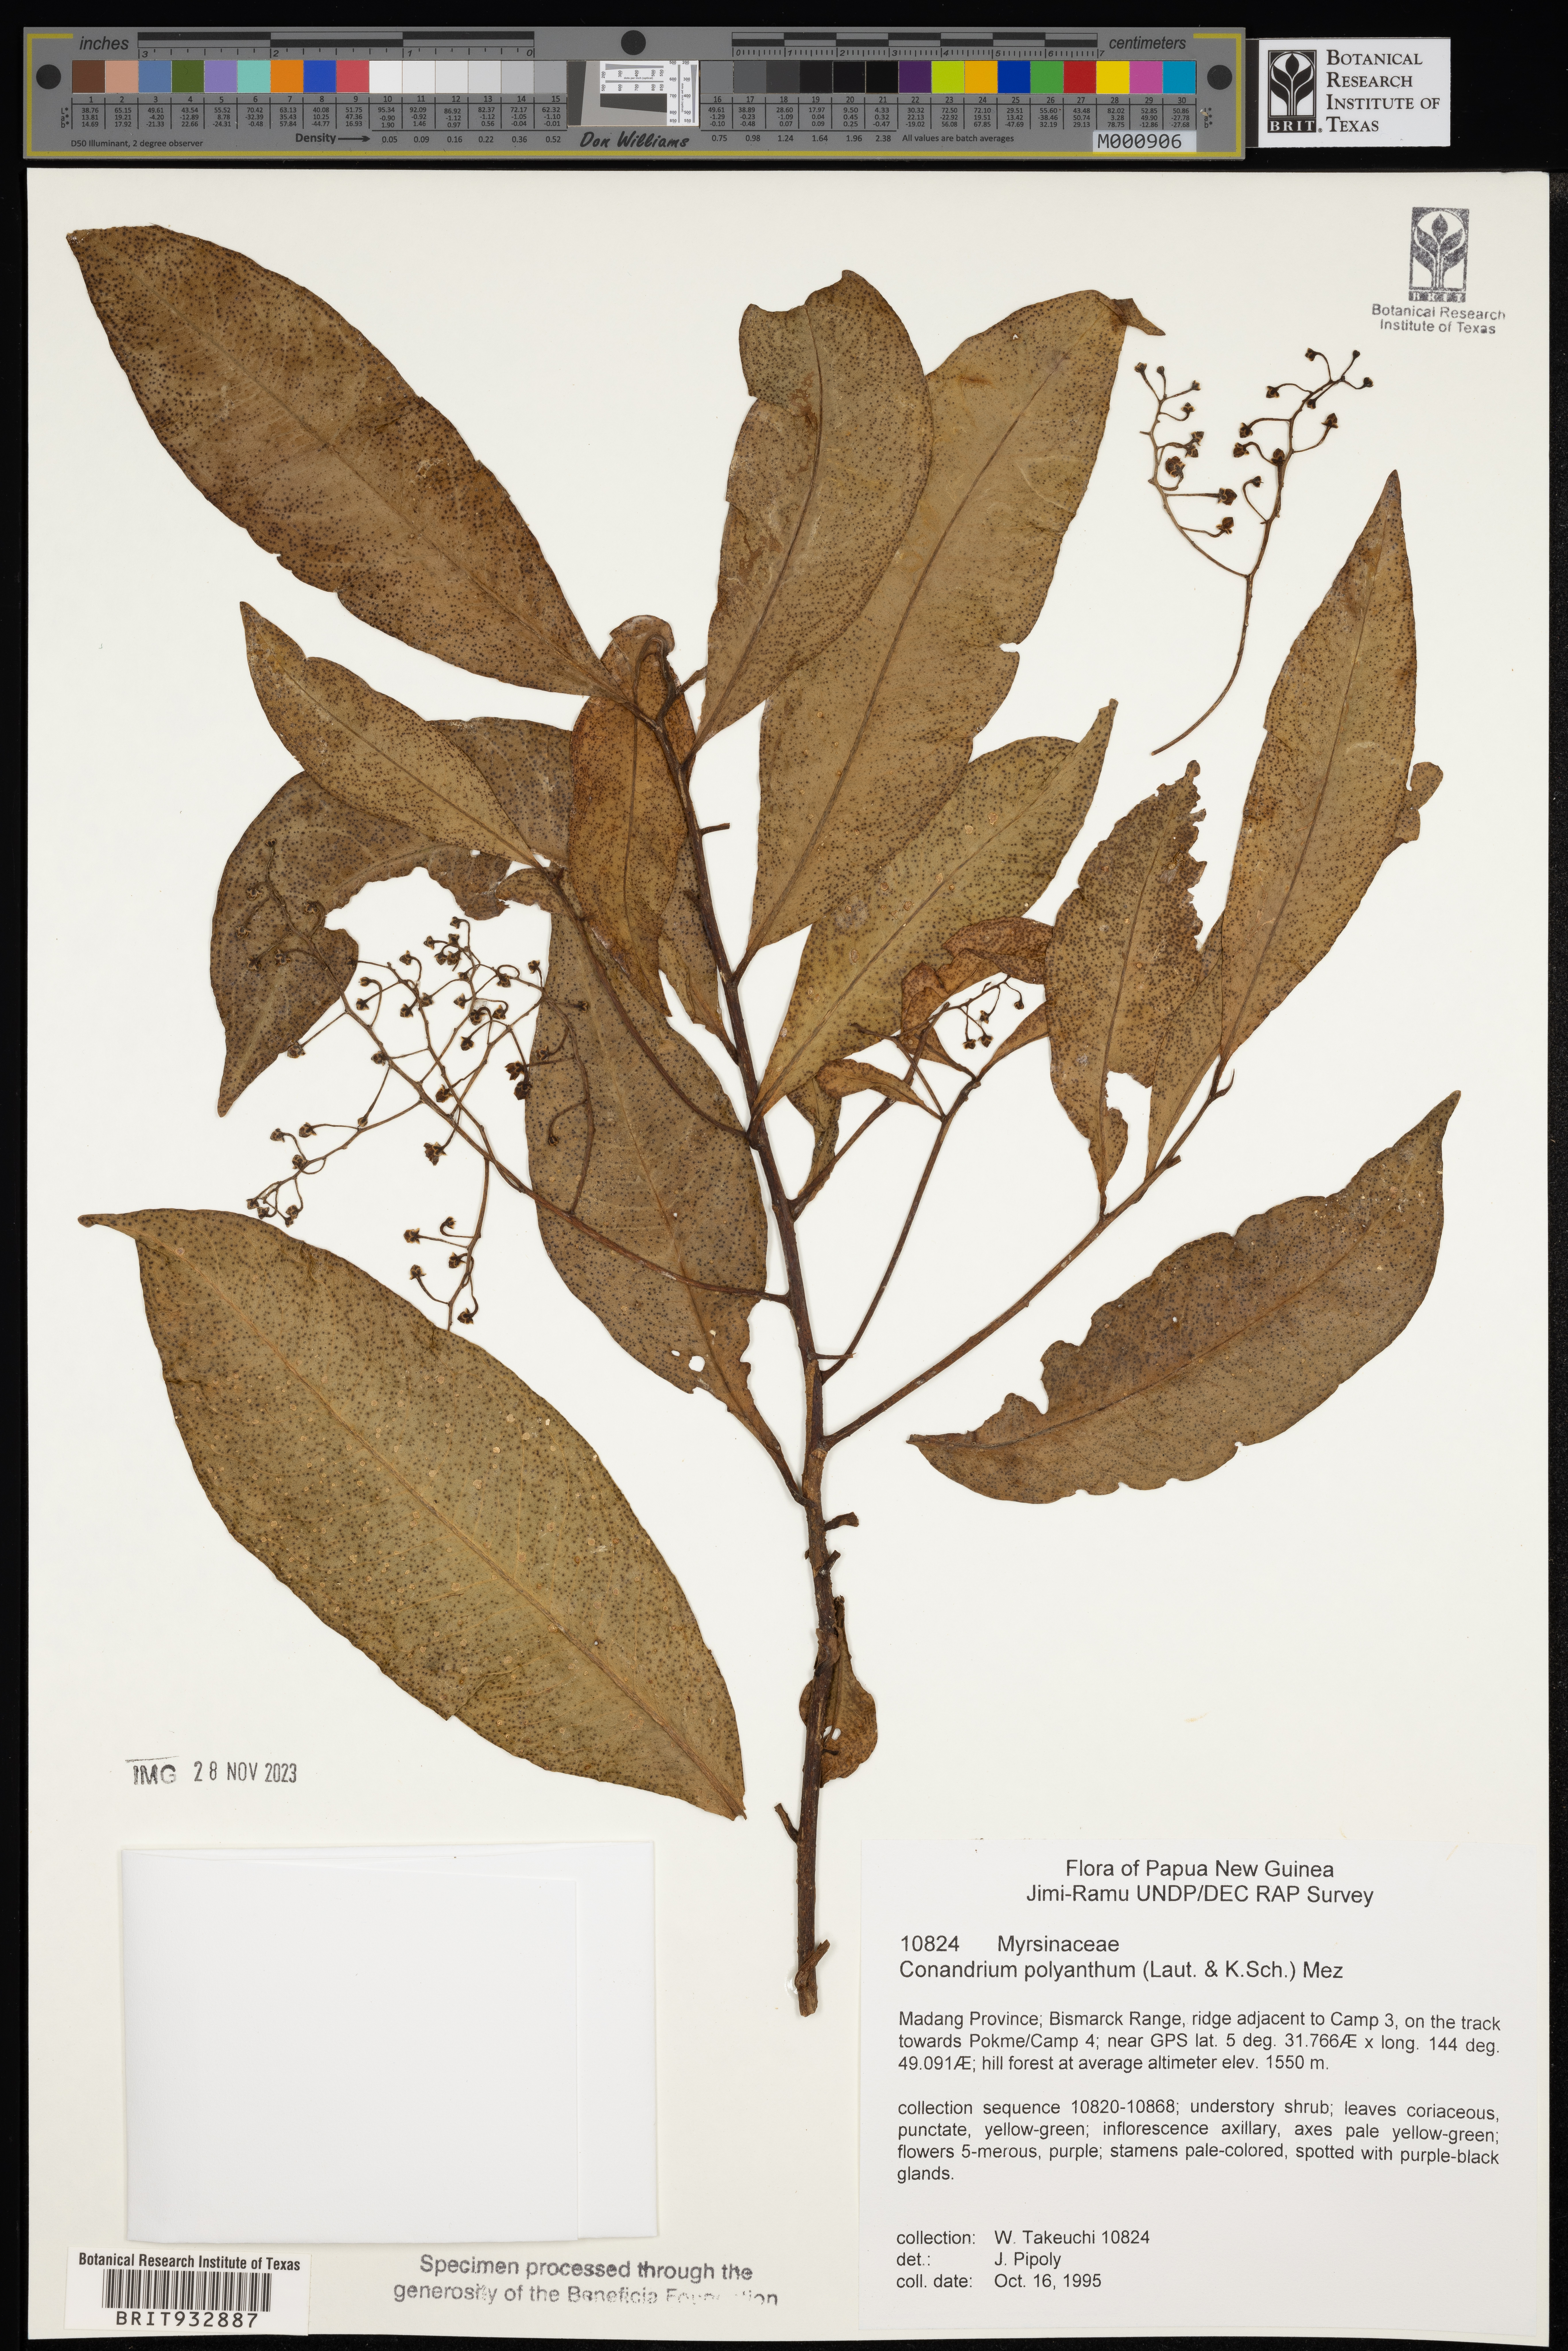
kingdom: Plantae
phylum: Tracheophyta
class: Magnoliopsida
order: Ericales
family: Primulaceae
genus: Conandrium
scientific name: Conandrium
